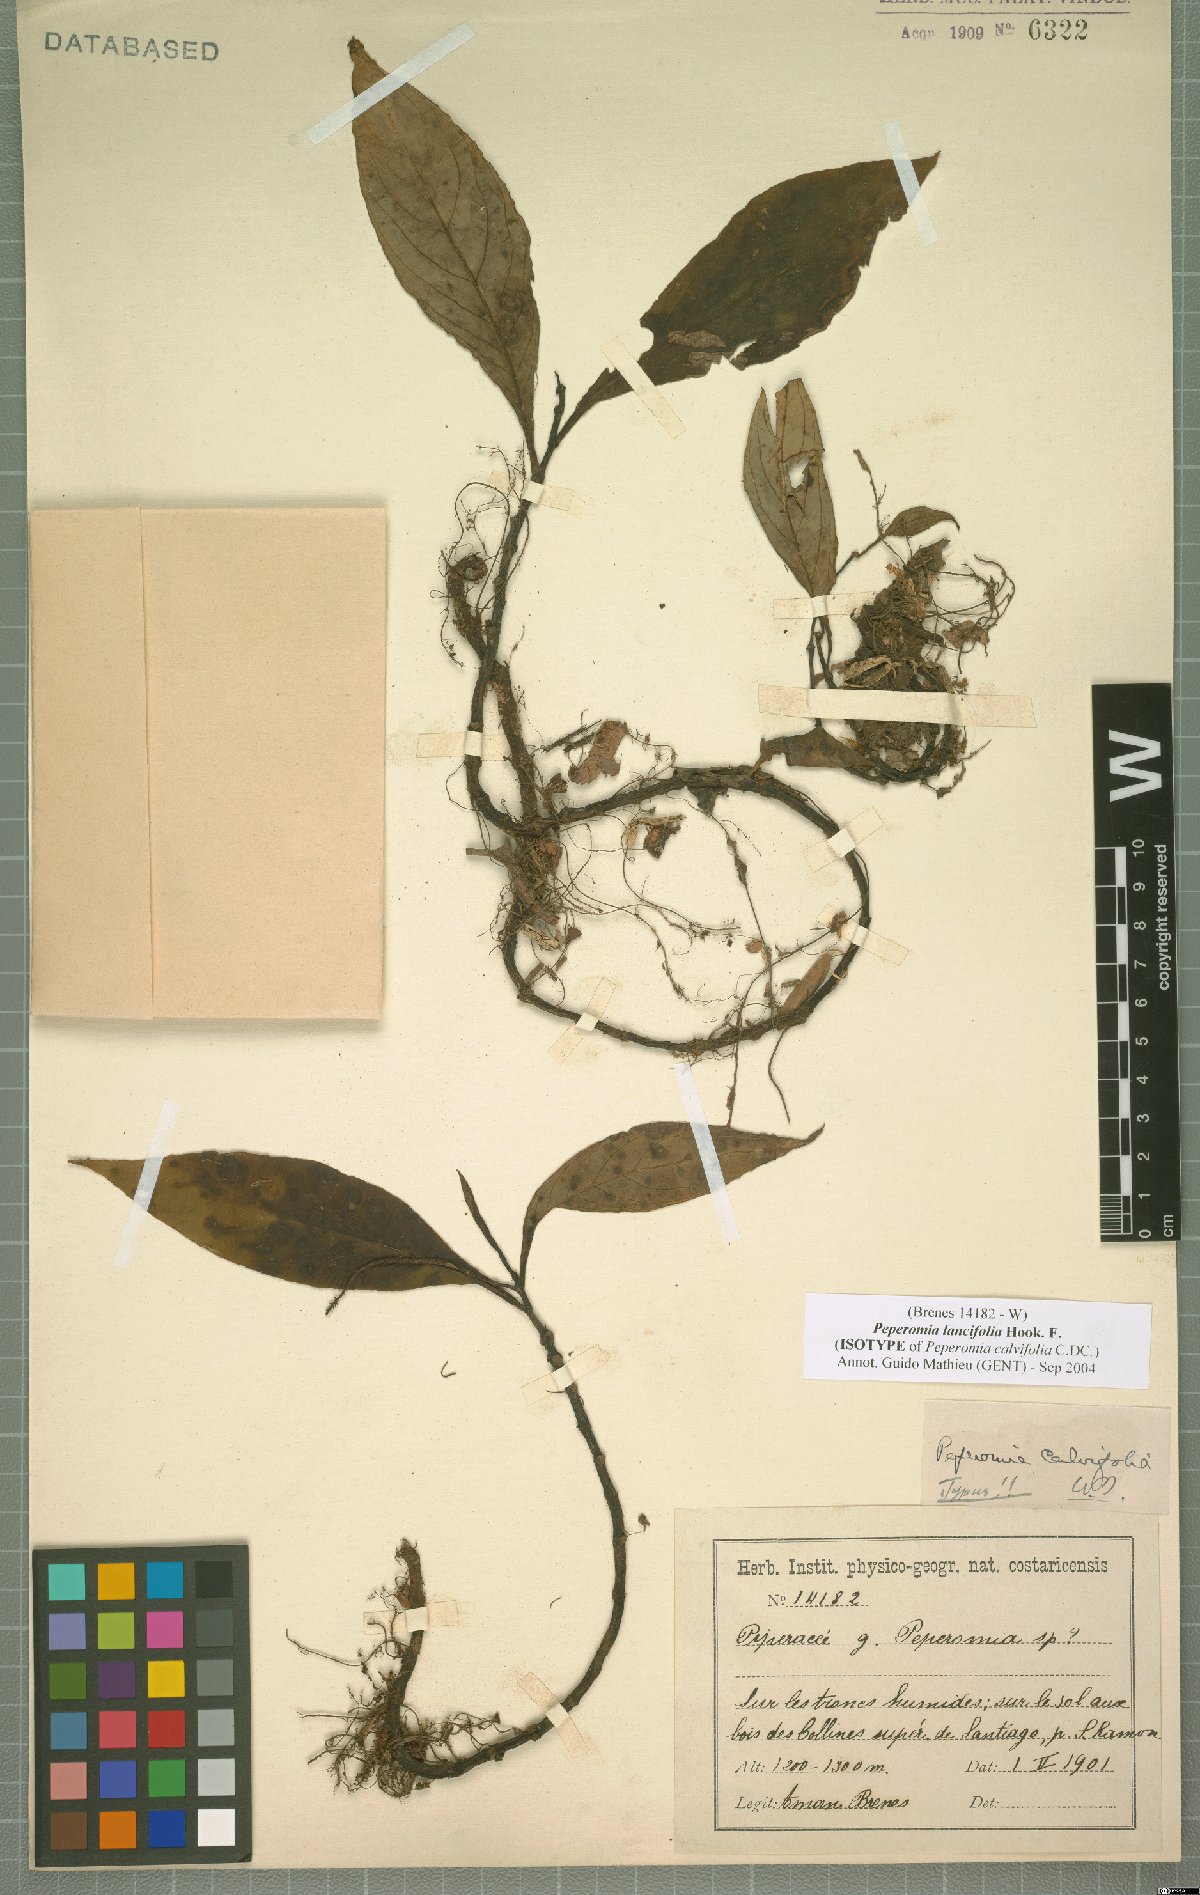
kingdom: Plantae
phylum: Tracheophyta
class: Magnoliopsida
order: Piperales
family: Piperaceae
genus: Peperomia
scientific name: Peperomia lancifolia
